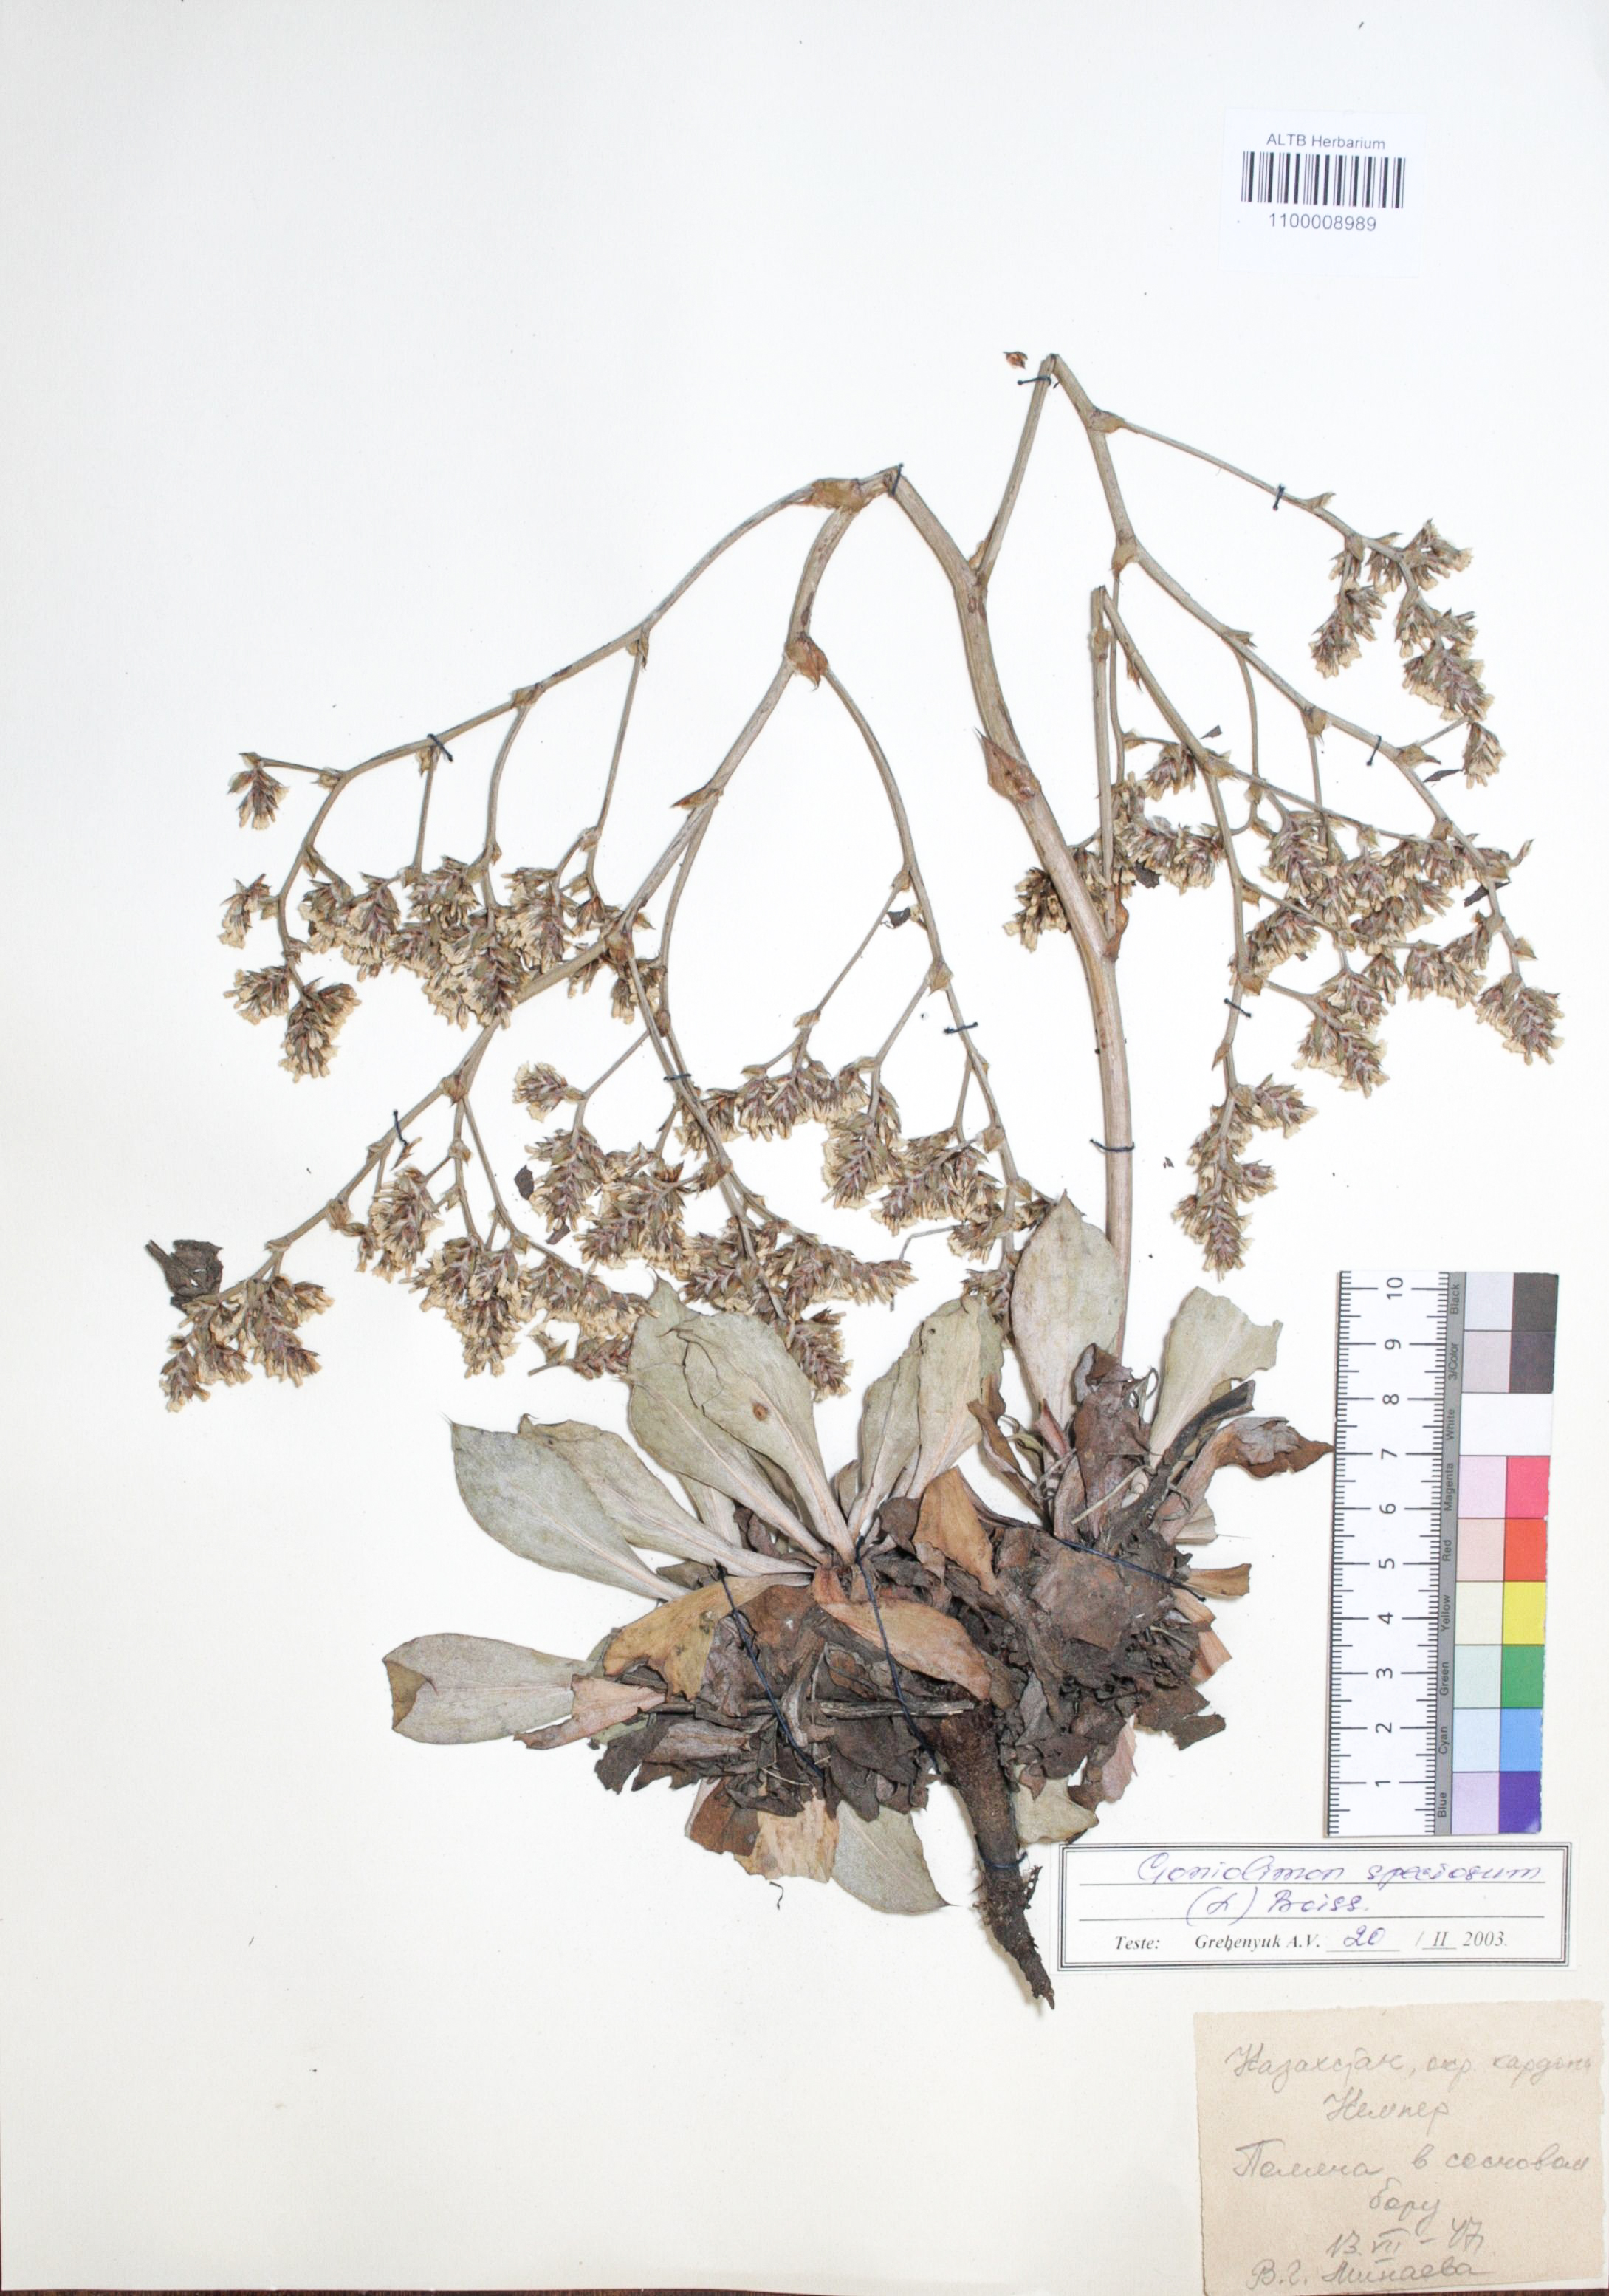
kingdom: Plantae
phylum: Tracheophyta
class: Magnoliopsida
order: Caryophyllales
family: Plumbaginaceae
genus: Goniolimon
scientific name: Goniolimon speciosum
